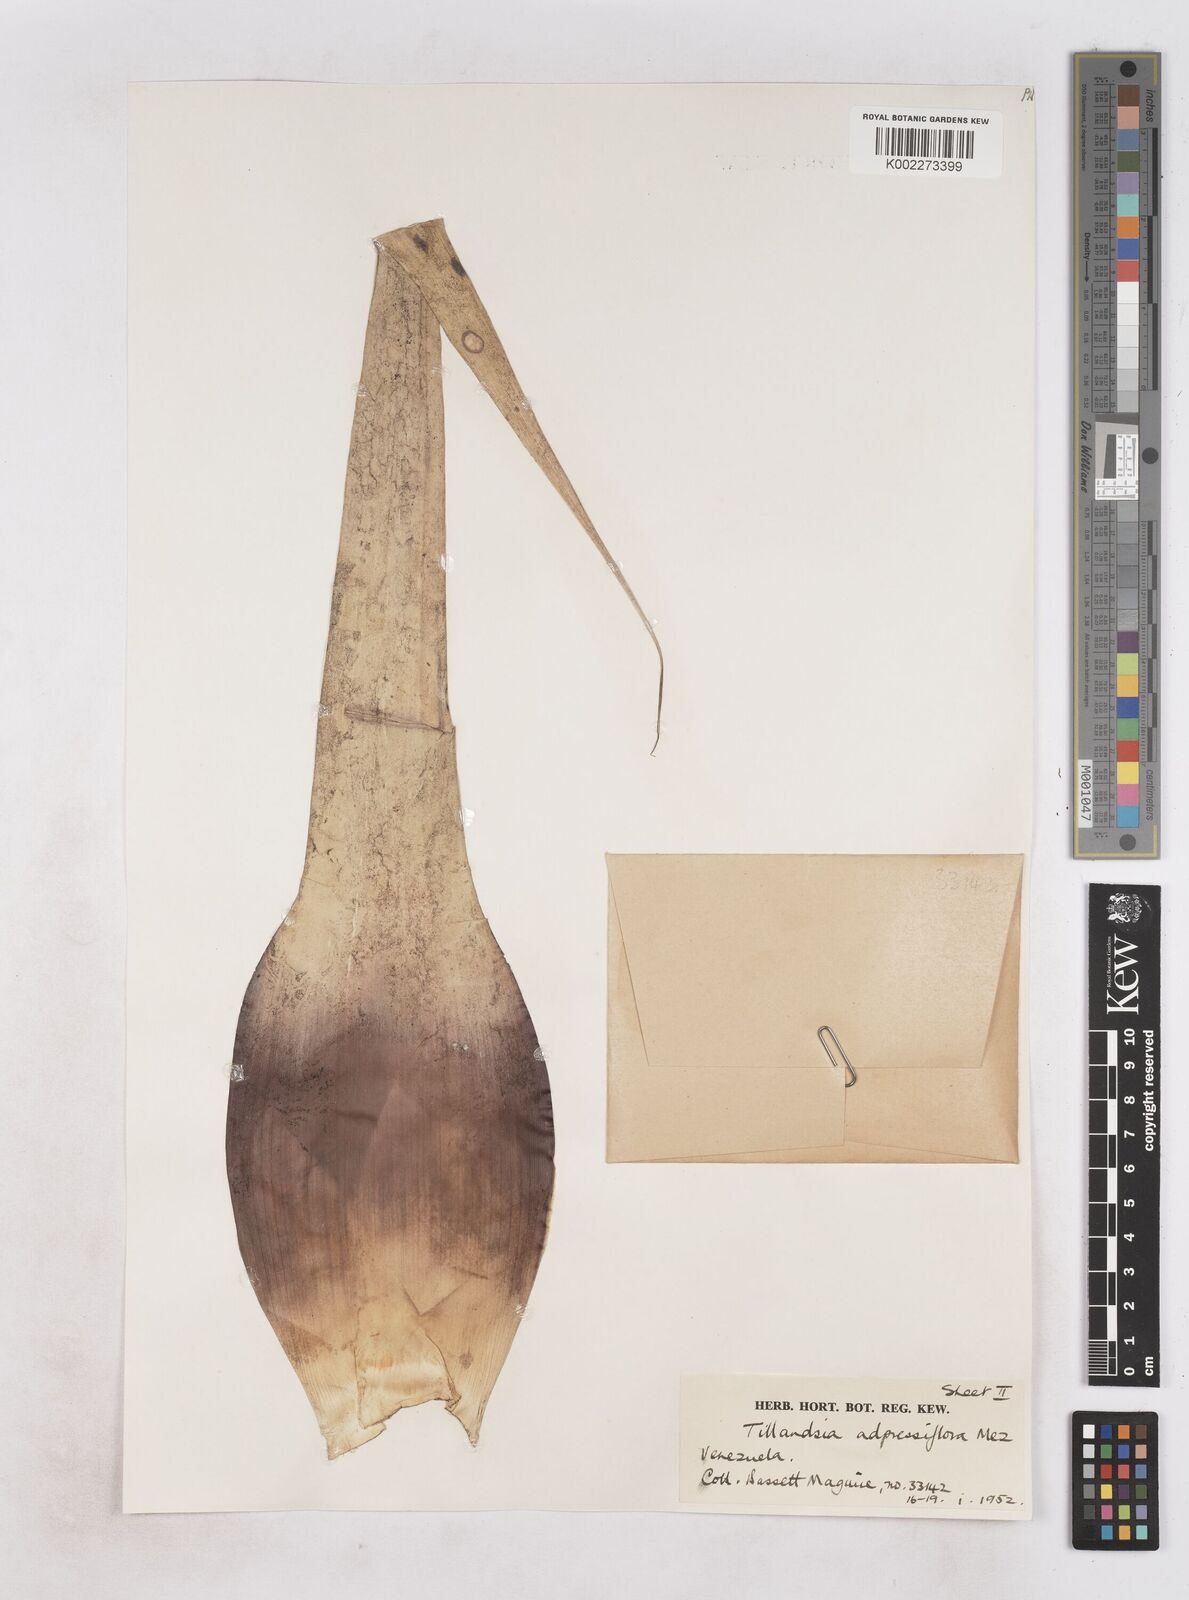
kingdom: Plantae
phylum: Tracheophyta
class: Liliopsida
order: Poales
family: Bromeliaceae
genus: Tillandsia
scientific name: Tillandsia adpressiflora
